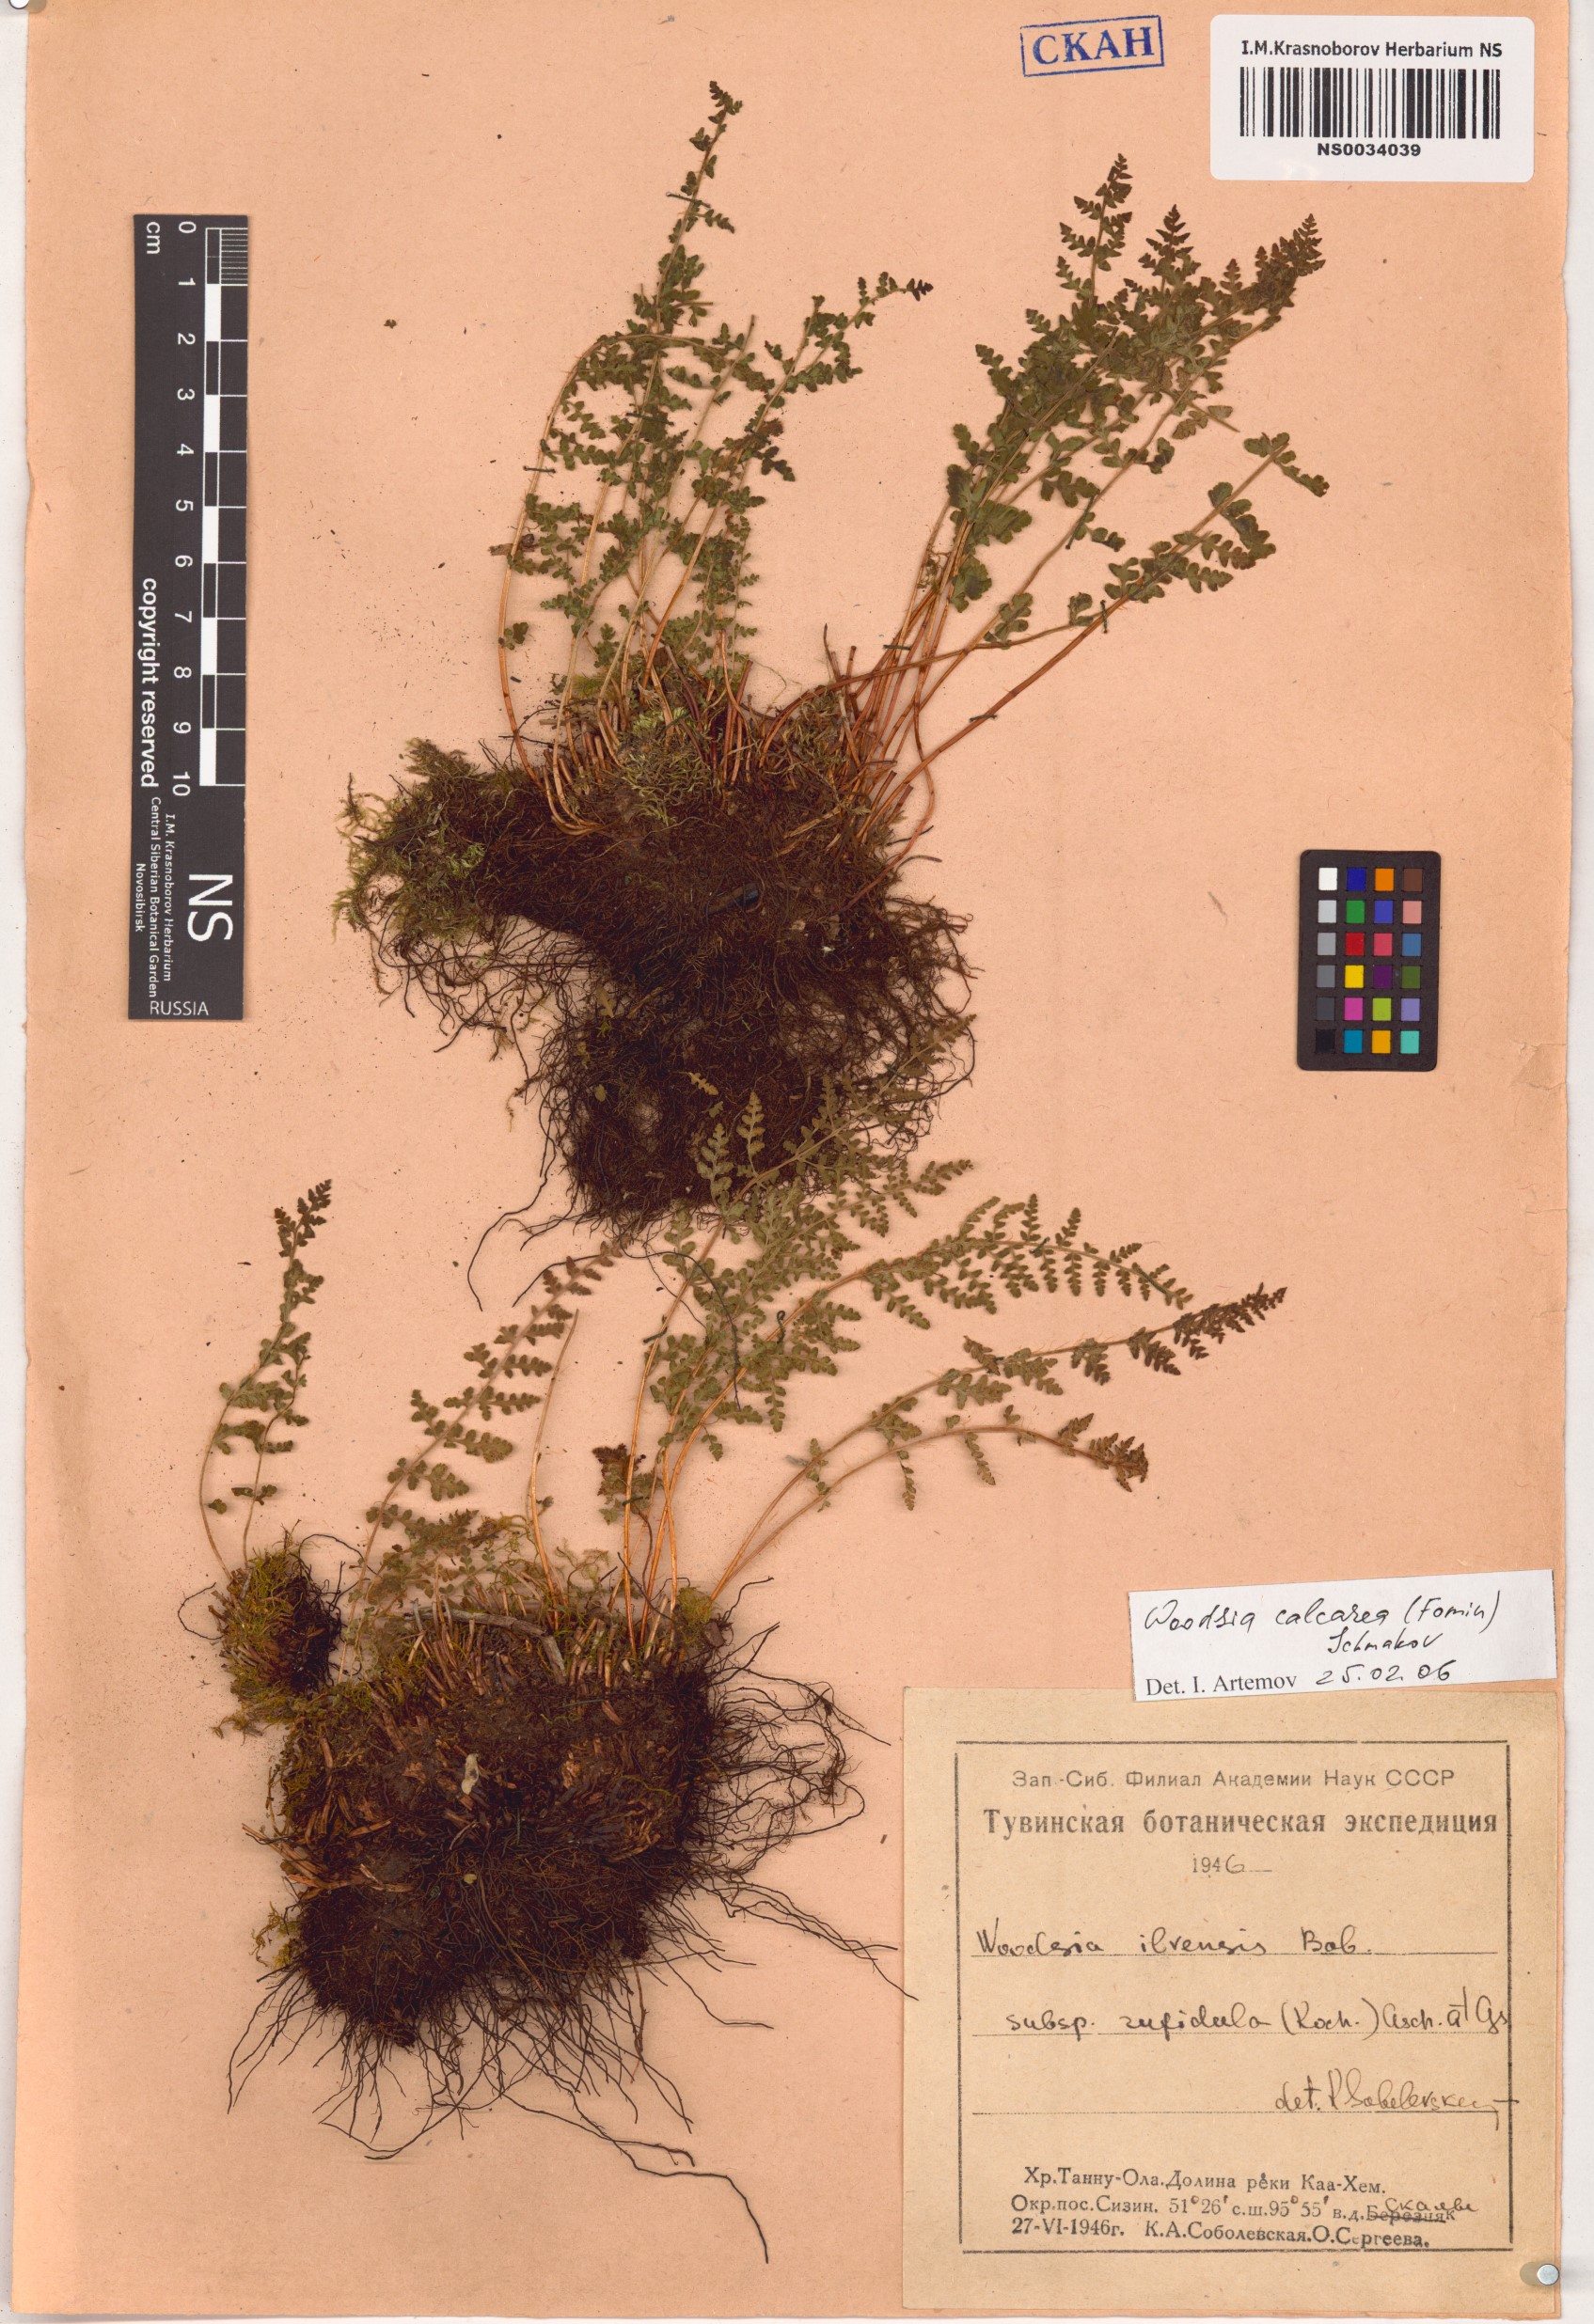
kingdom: Plantae
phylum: Tracheophyta
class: Polypodiopsida
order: Polypodiales
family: Woodsiaceae
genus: Woodsia
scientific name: Woodsia calcarea
